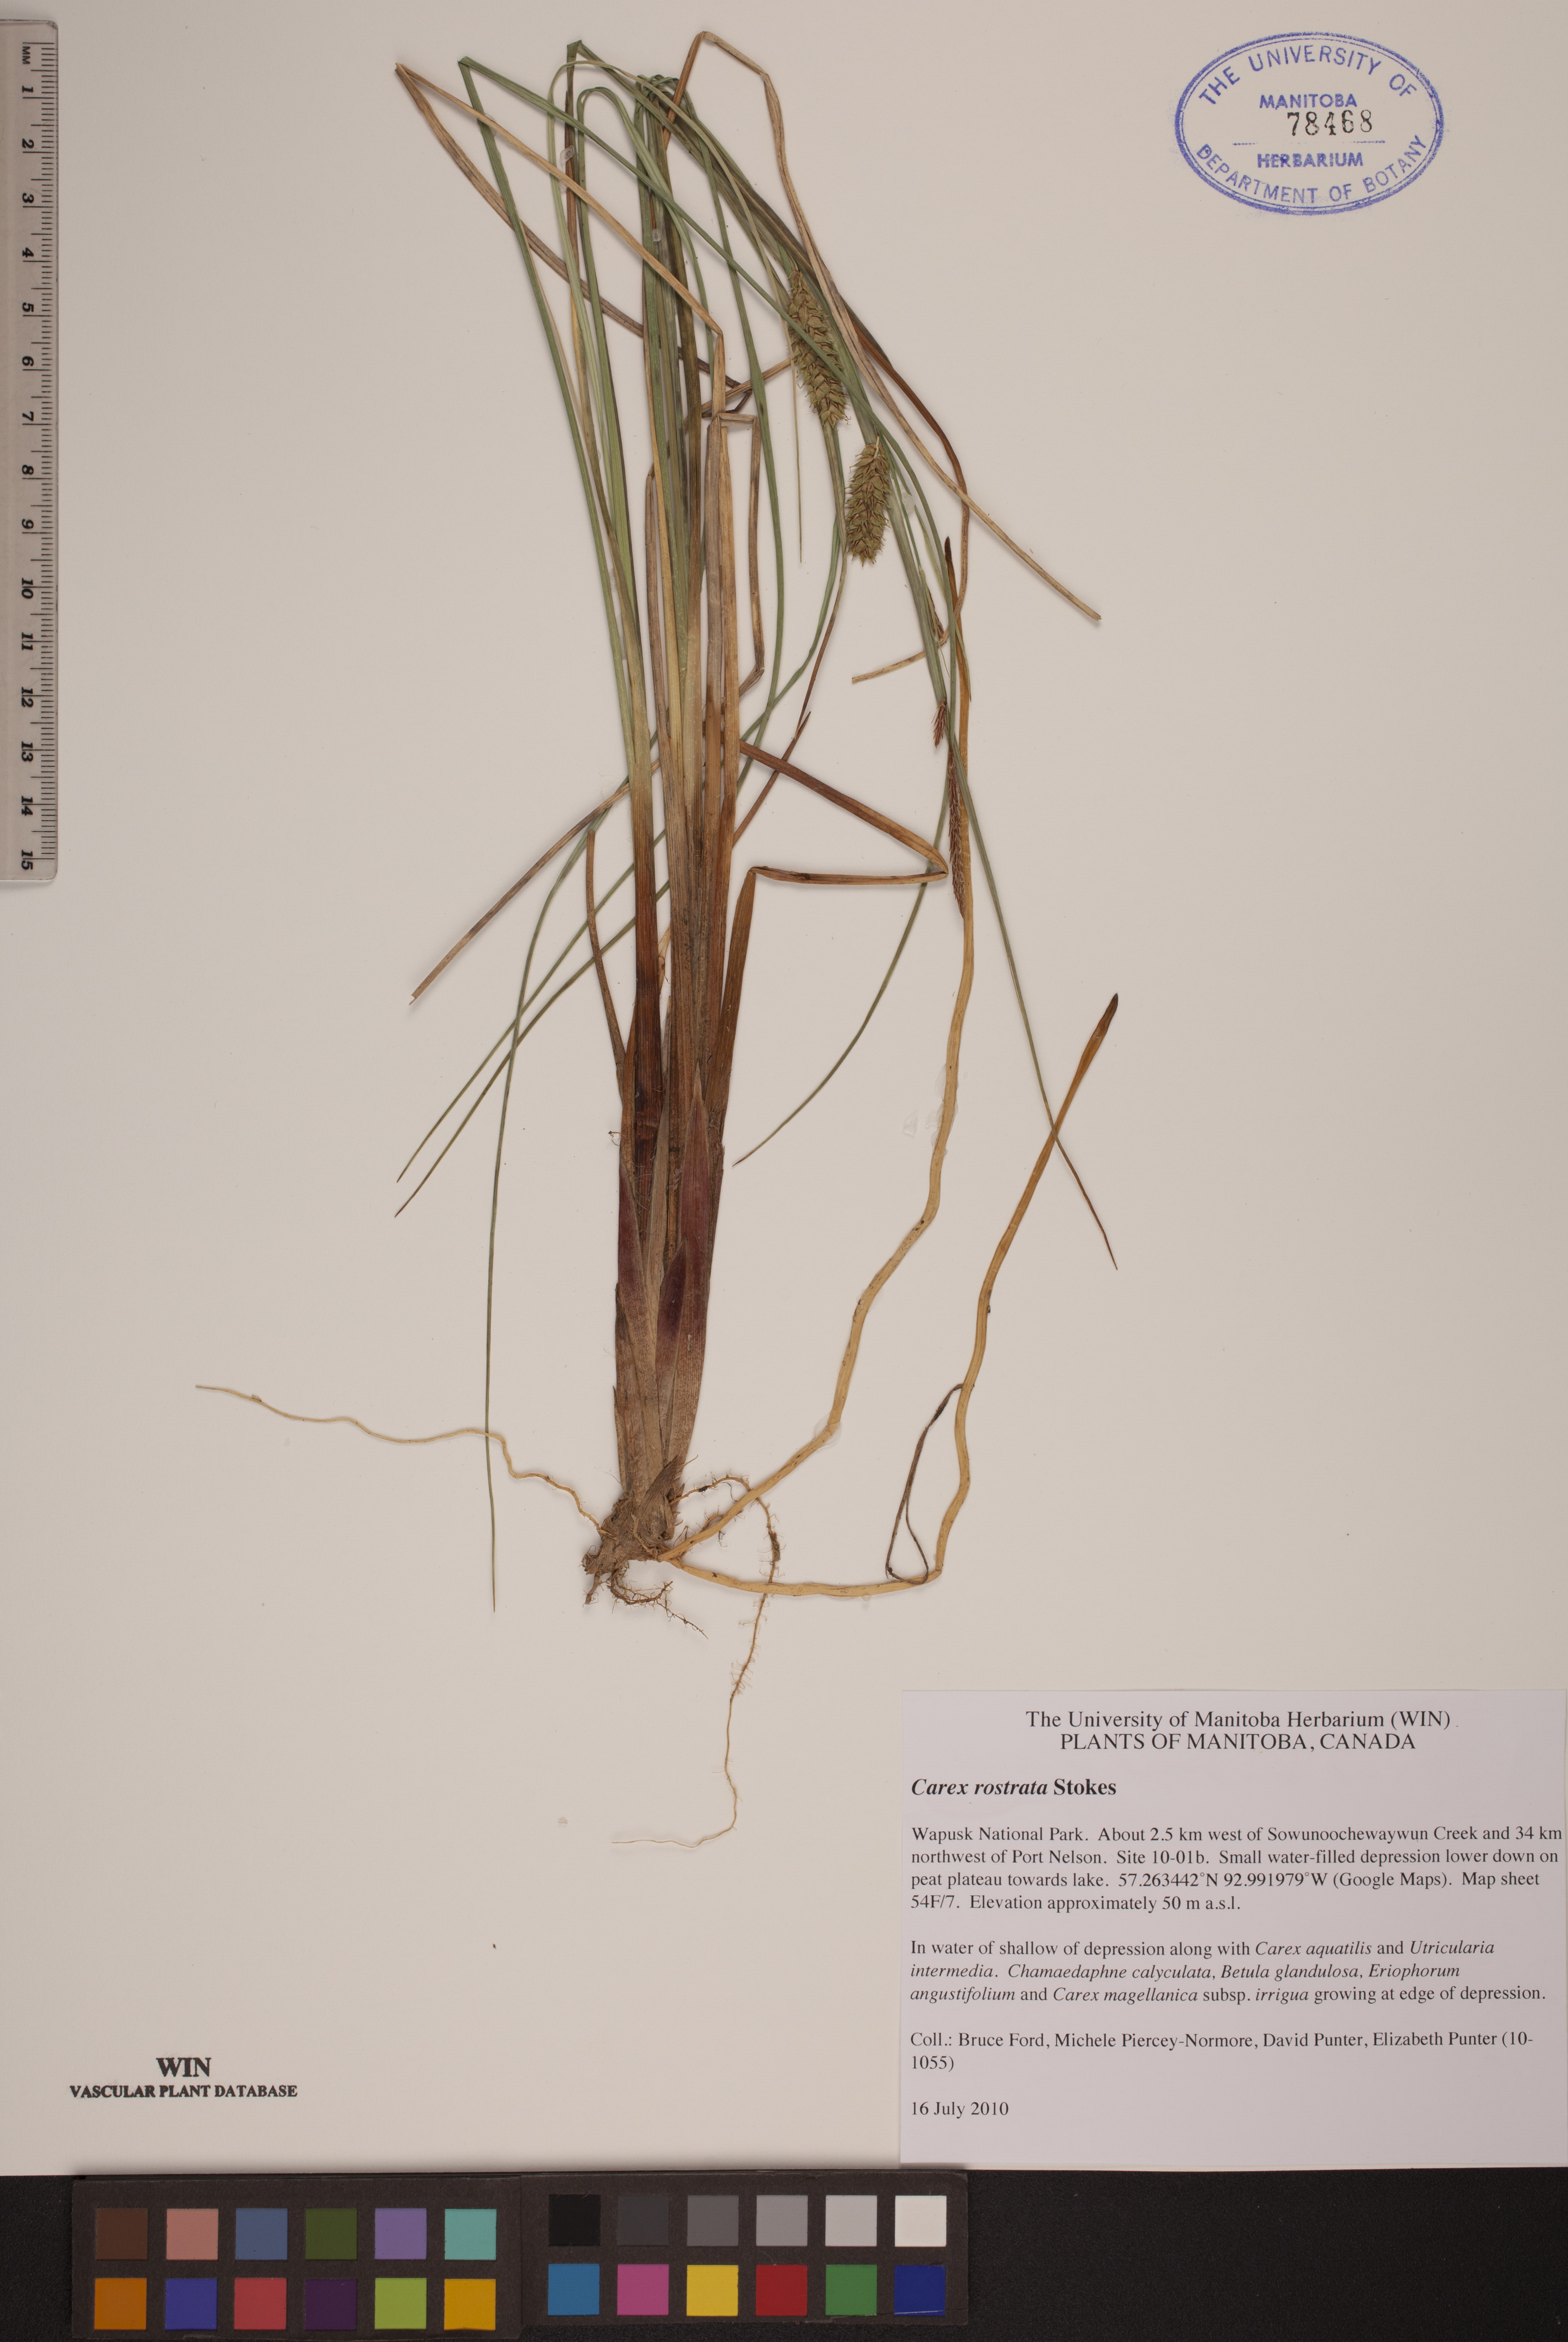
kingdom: Plantae
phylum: Tracheophyta
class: Liliopsida
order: Poales
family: Cyperaceae
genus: Carex
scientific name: Carex rostrata
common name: Bottle sedge
